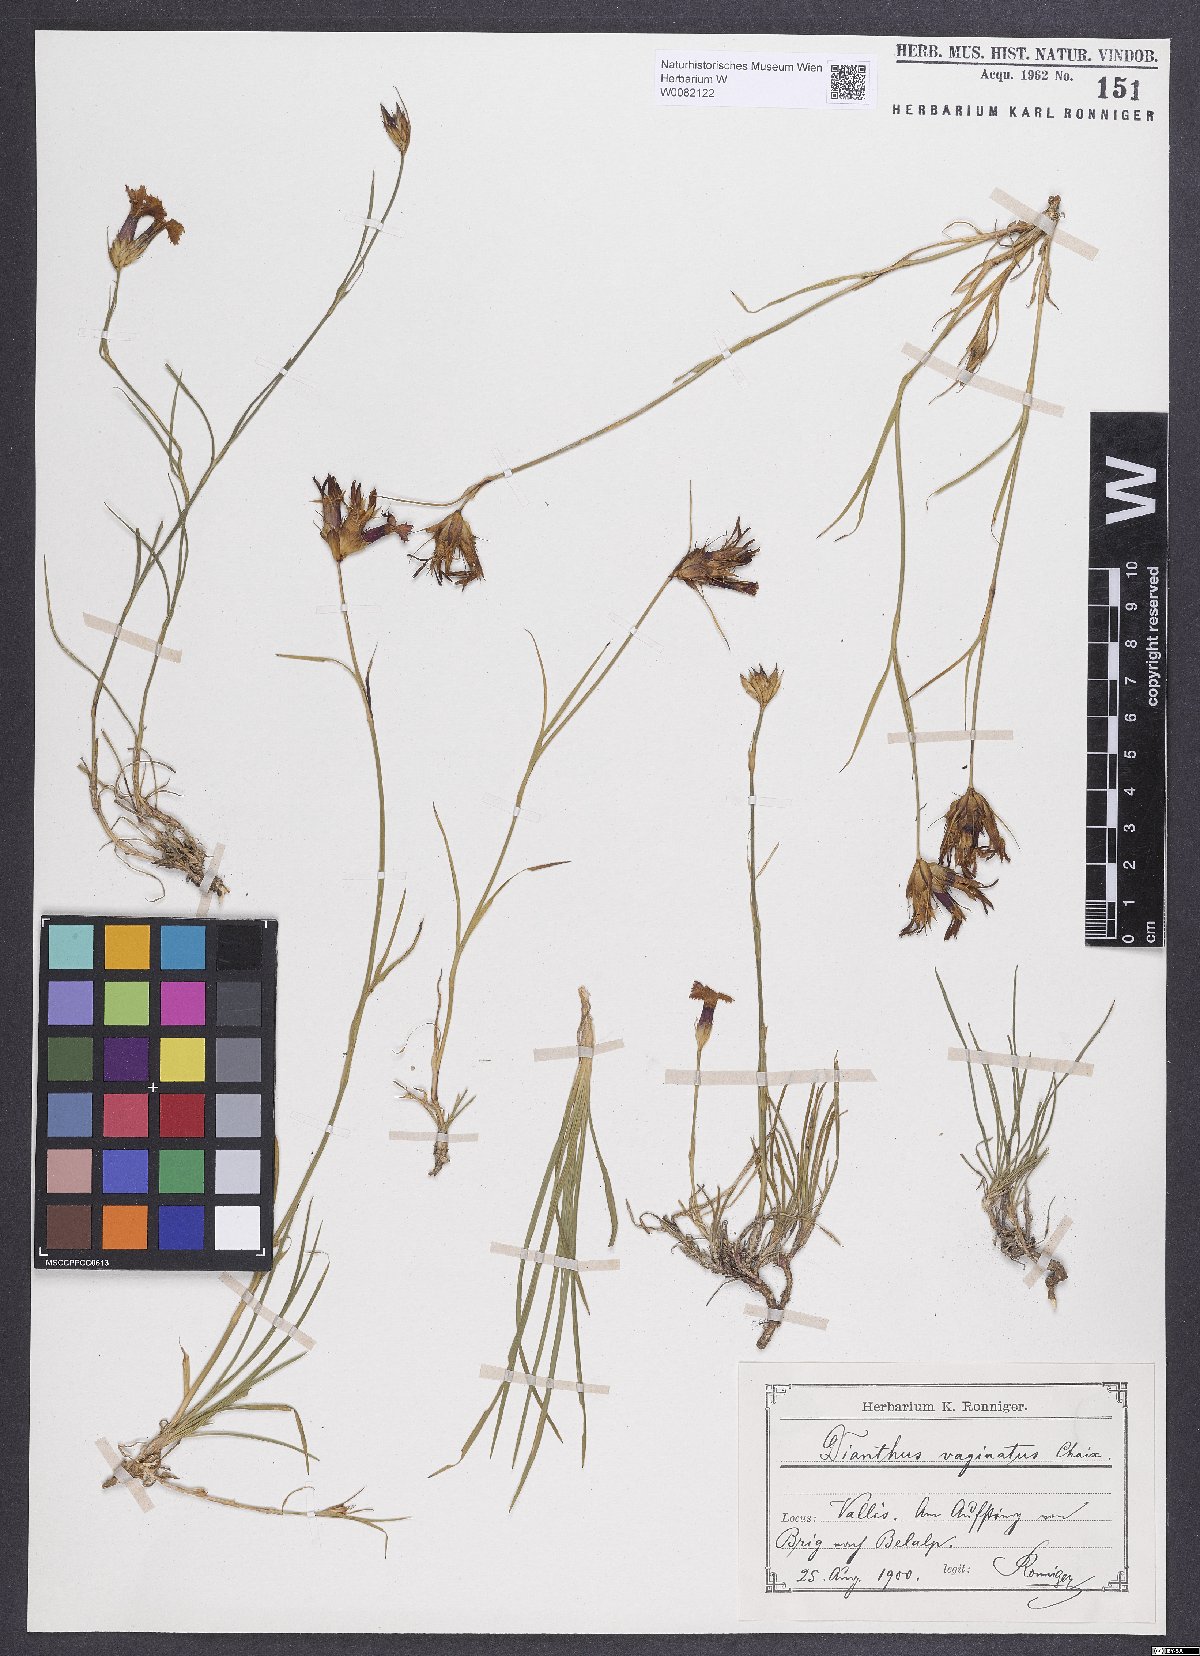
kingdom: Plantae
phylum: Tracheophyta
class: Magnoliopsida
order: Caryophyllales
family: Caryophyllaceae
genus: Dianthus
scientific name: Dianthus carthusianorum
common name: Carthusian pink
